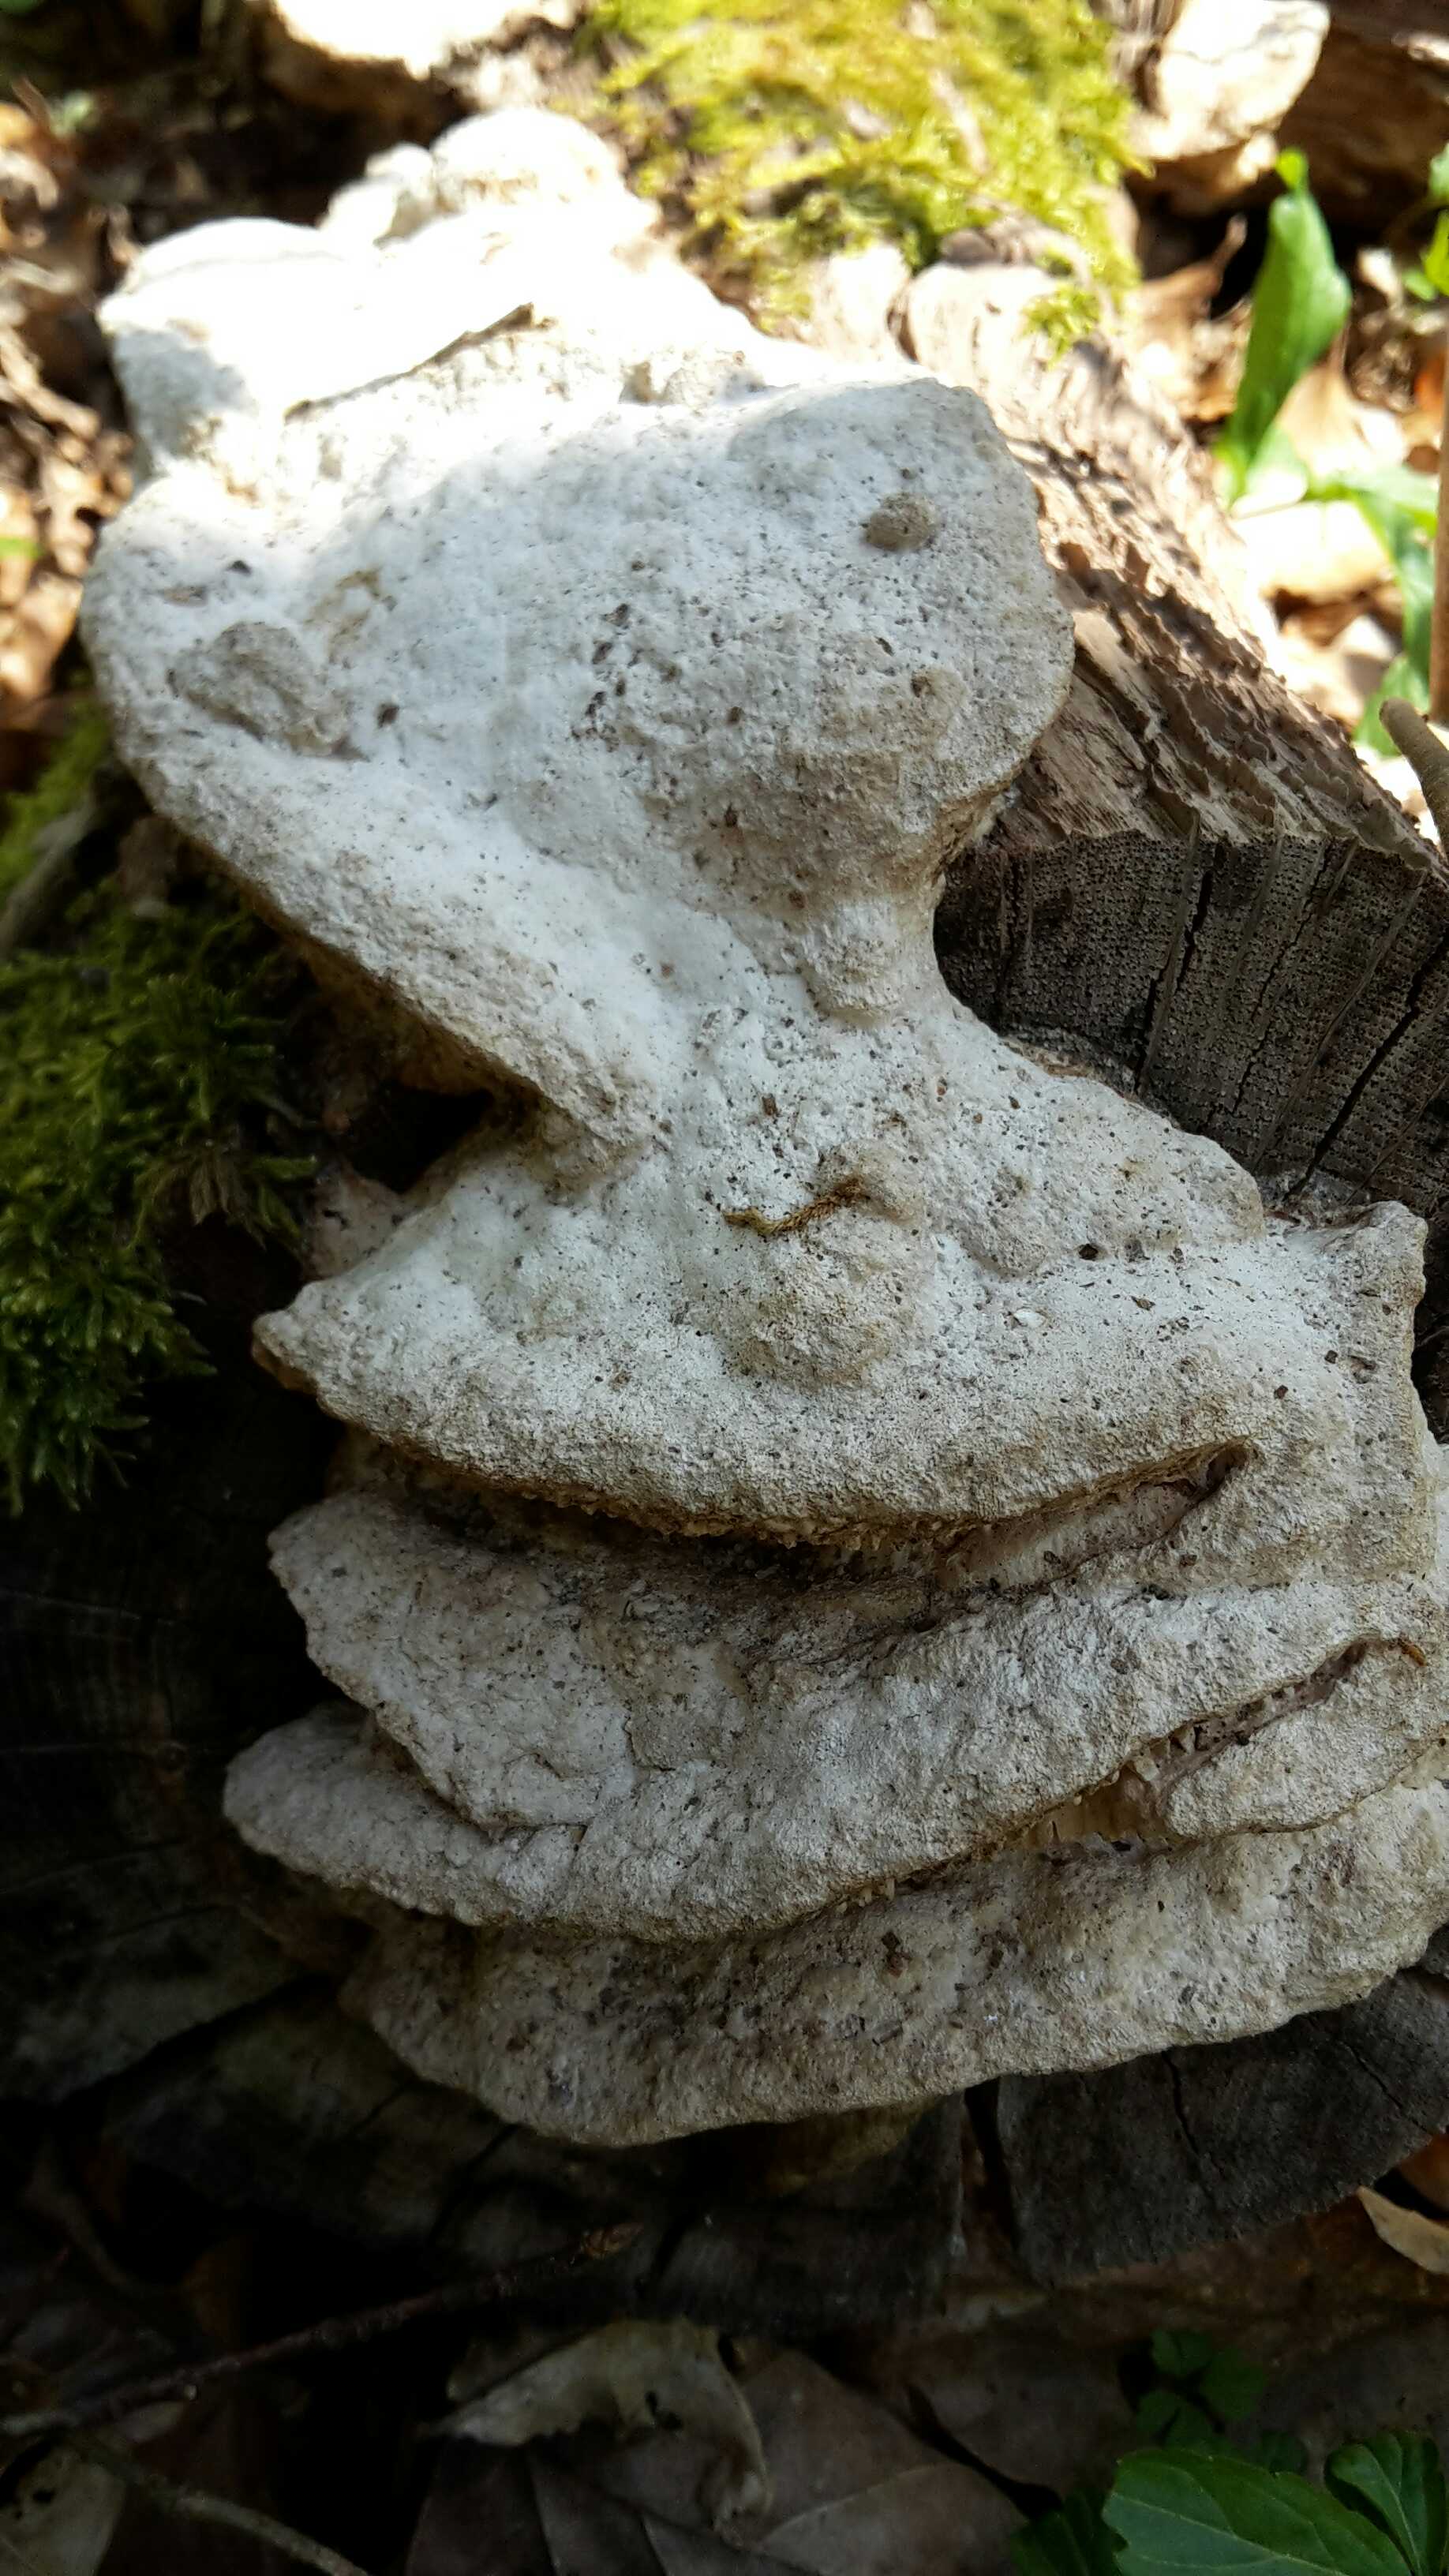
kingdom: Fungi
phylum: Basidiomycota
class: Agaricomycetes
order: Polyporales
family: Fomitopsidaceae
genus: Daedalea
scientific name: Daedalea quercina
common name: ege-labyrintsvamp
